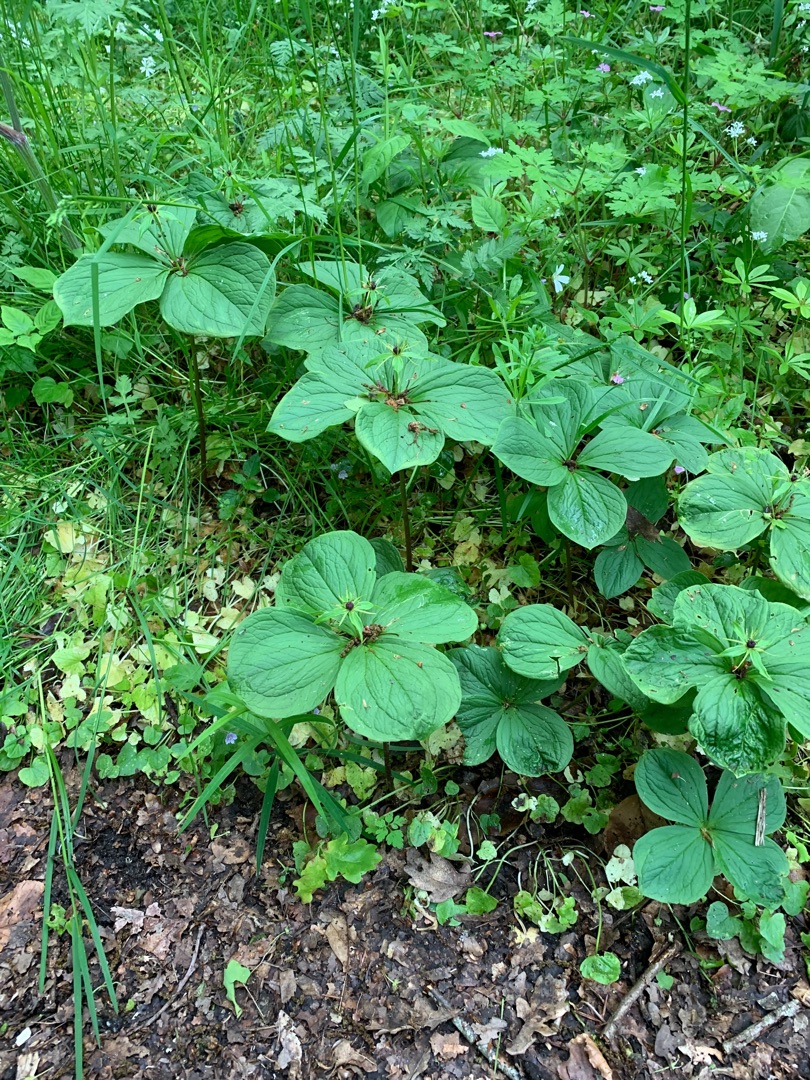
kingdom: Plantae
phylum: Tracheophyta
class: Liliopsida
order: Liliales
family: Melanthiaceae
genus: Paris
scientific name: Paris quadrifolia
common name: Firblad
